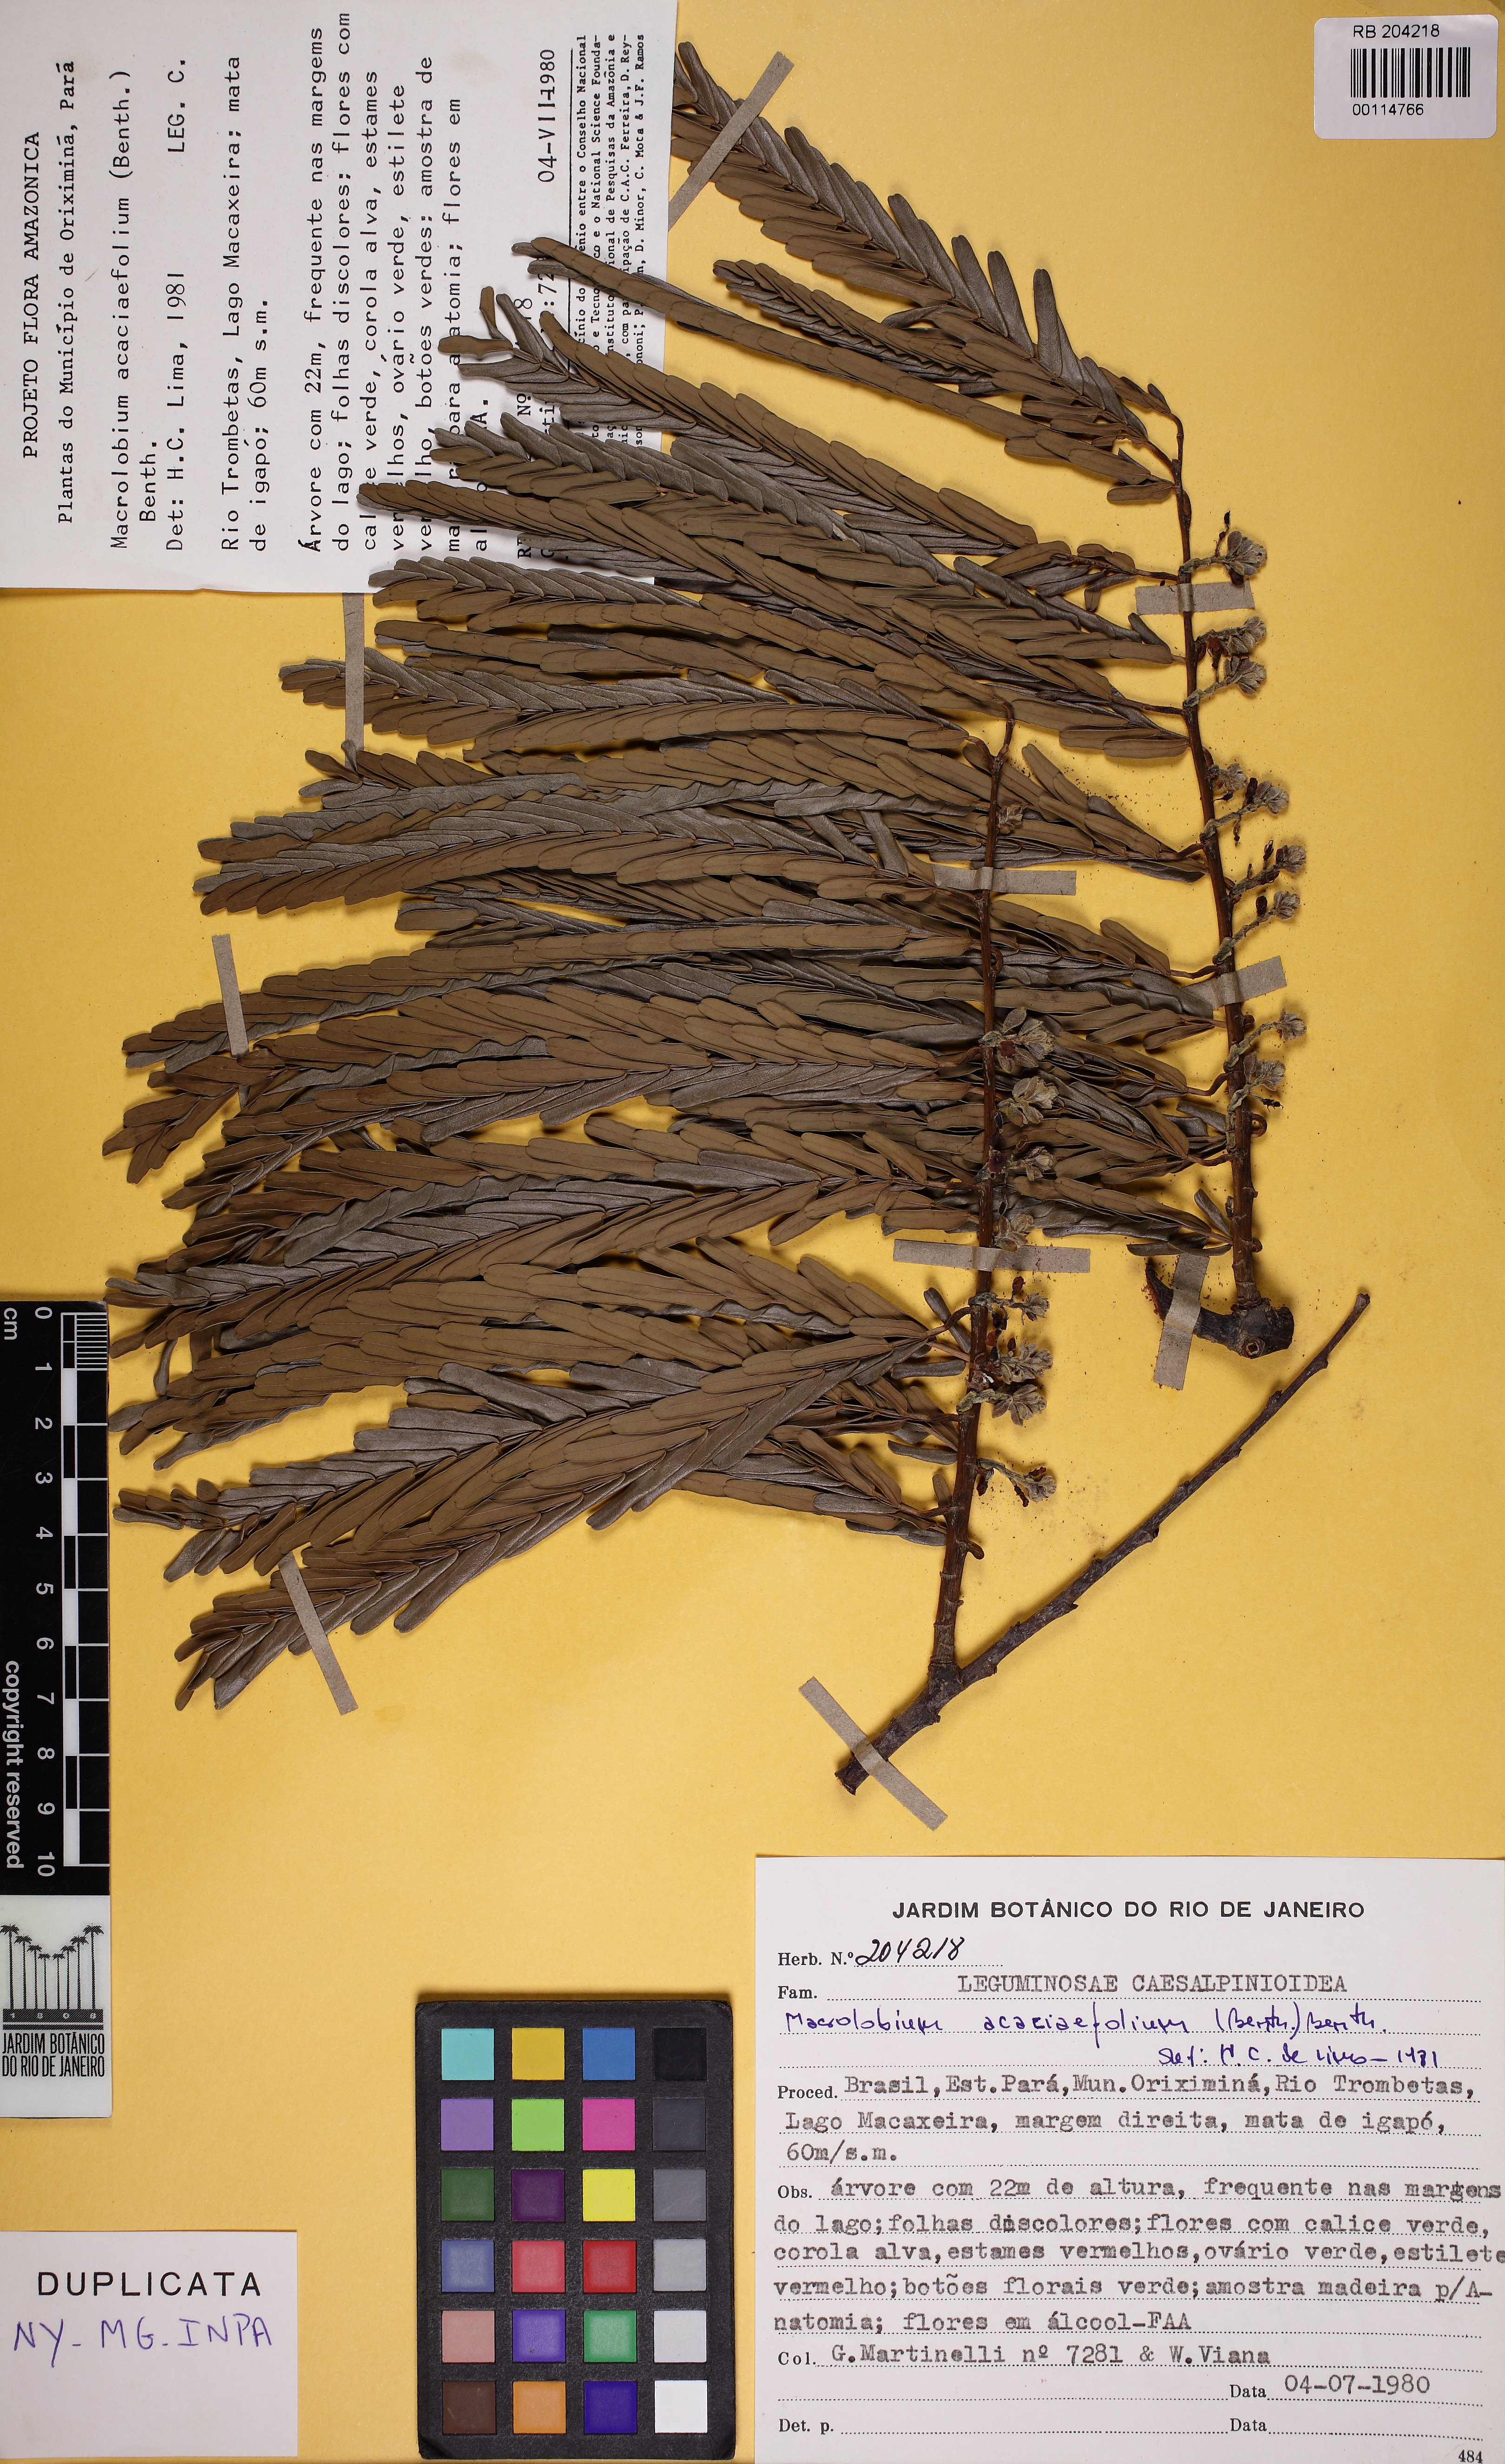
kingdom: Plantae
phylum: Tracheophyta
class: Magnoliopsida
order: Fabales
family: Fabaceae
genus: Macrolobium
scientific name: Macrolobium acaciifolium
